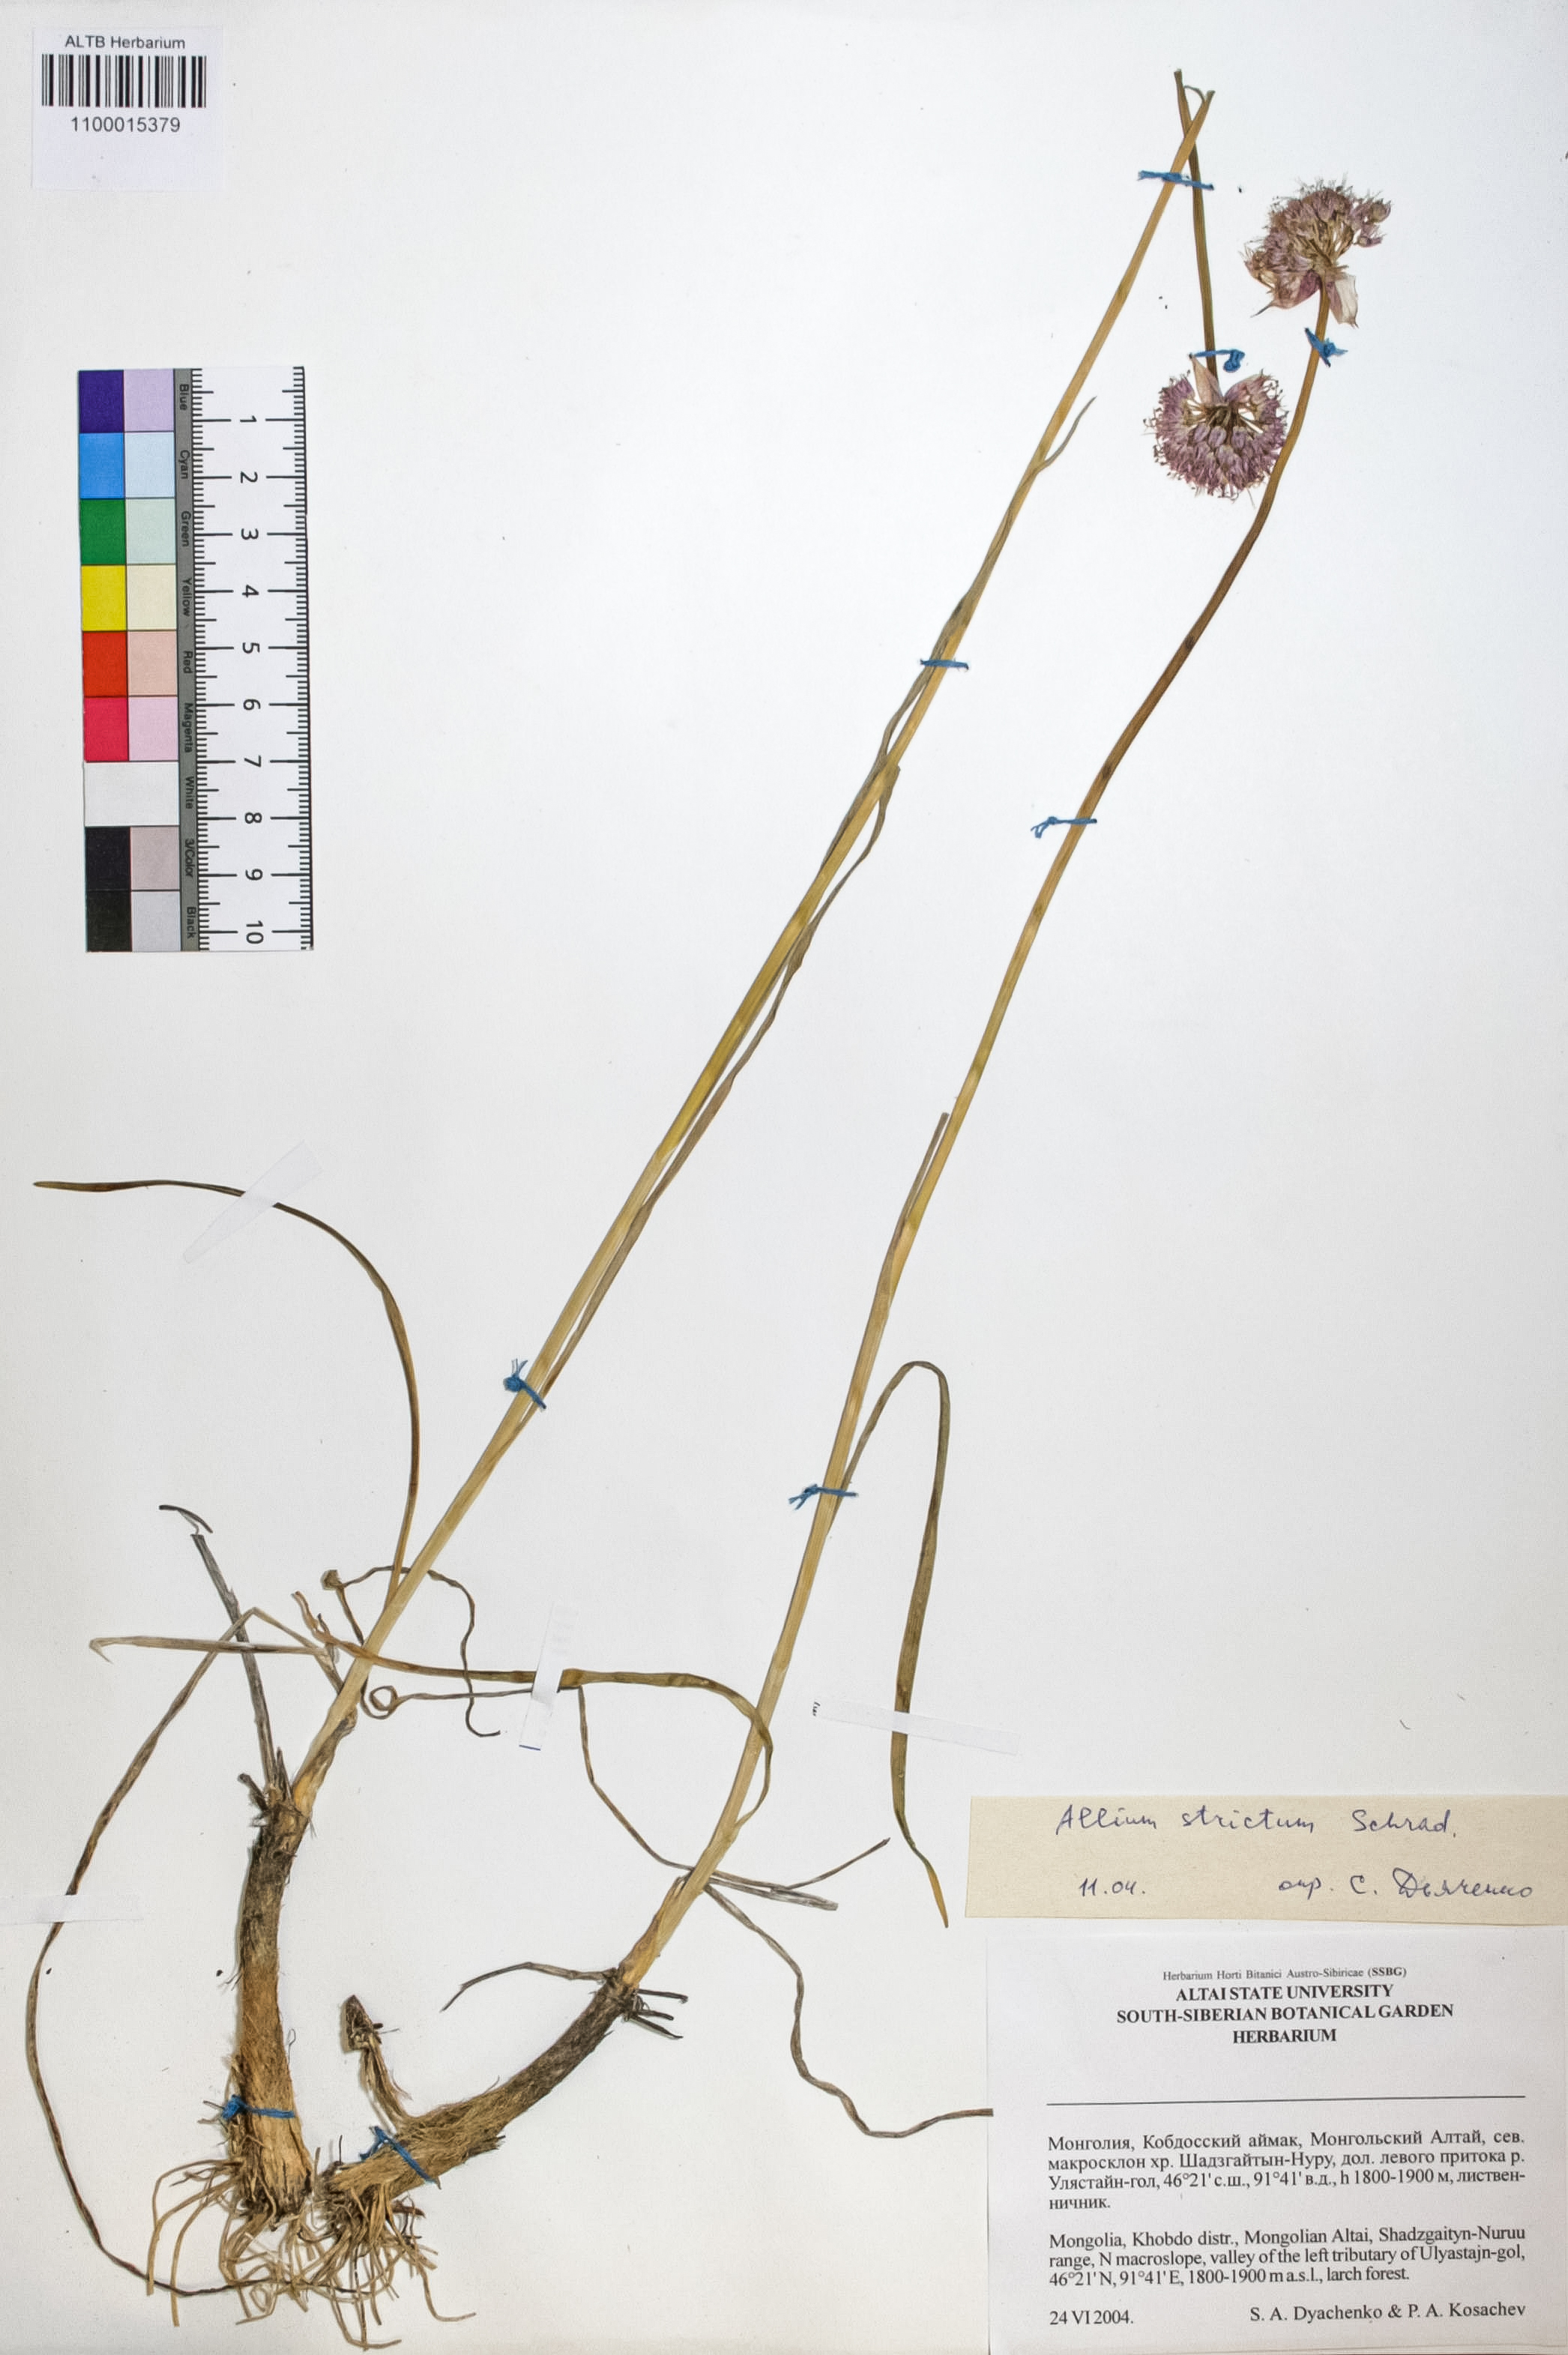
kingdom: Plantae
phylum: Tracheophyta
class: Liliopsida
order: Asparagales
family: Amaryllidaceae
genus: Allium
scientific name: Allium strictum
